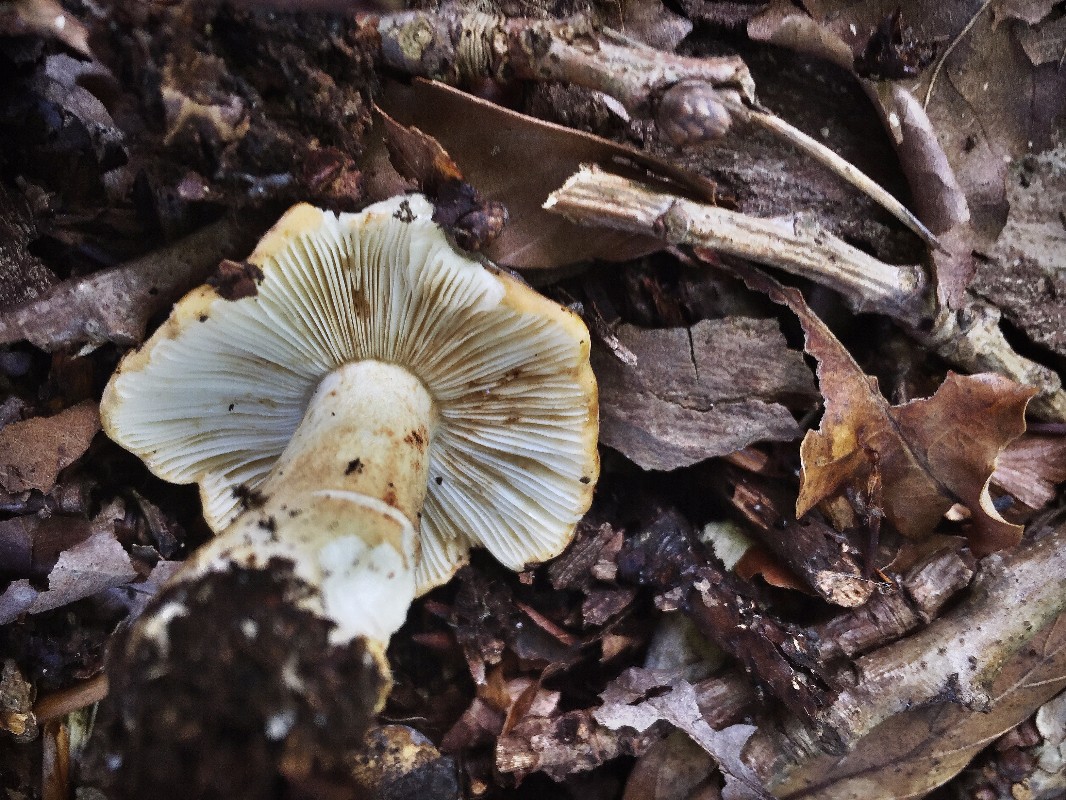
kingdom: Fungi
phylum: Basidiomycota
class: Agaricomycetes
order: Russulales
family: Russulaceae
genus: Russula
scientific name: Russula ochroleuca
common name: okkergul skørhat
